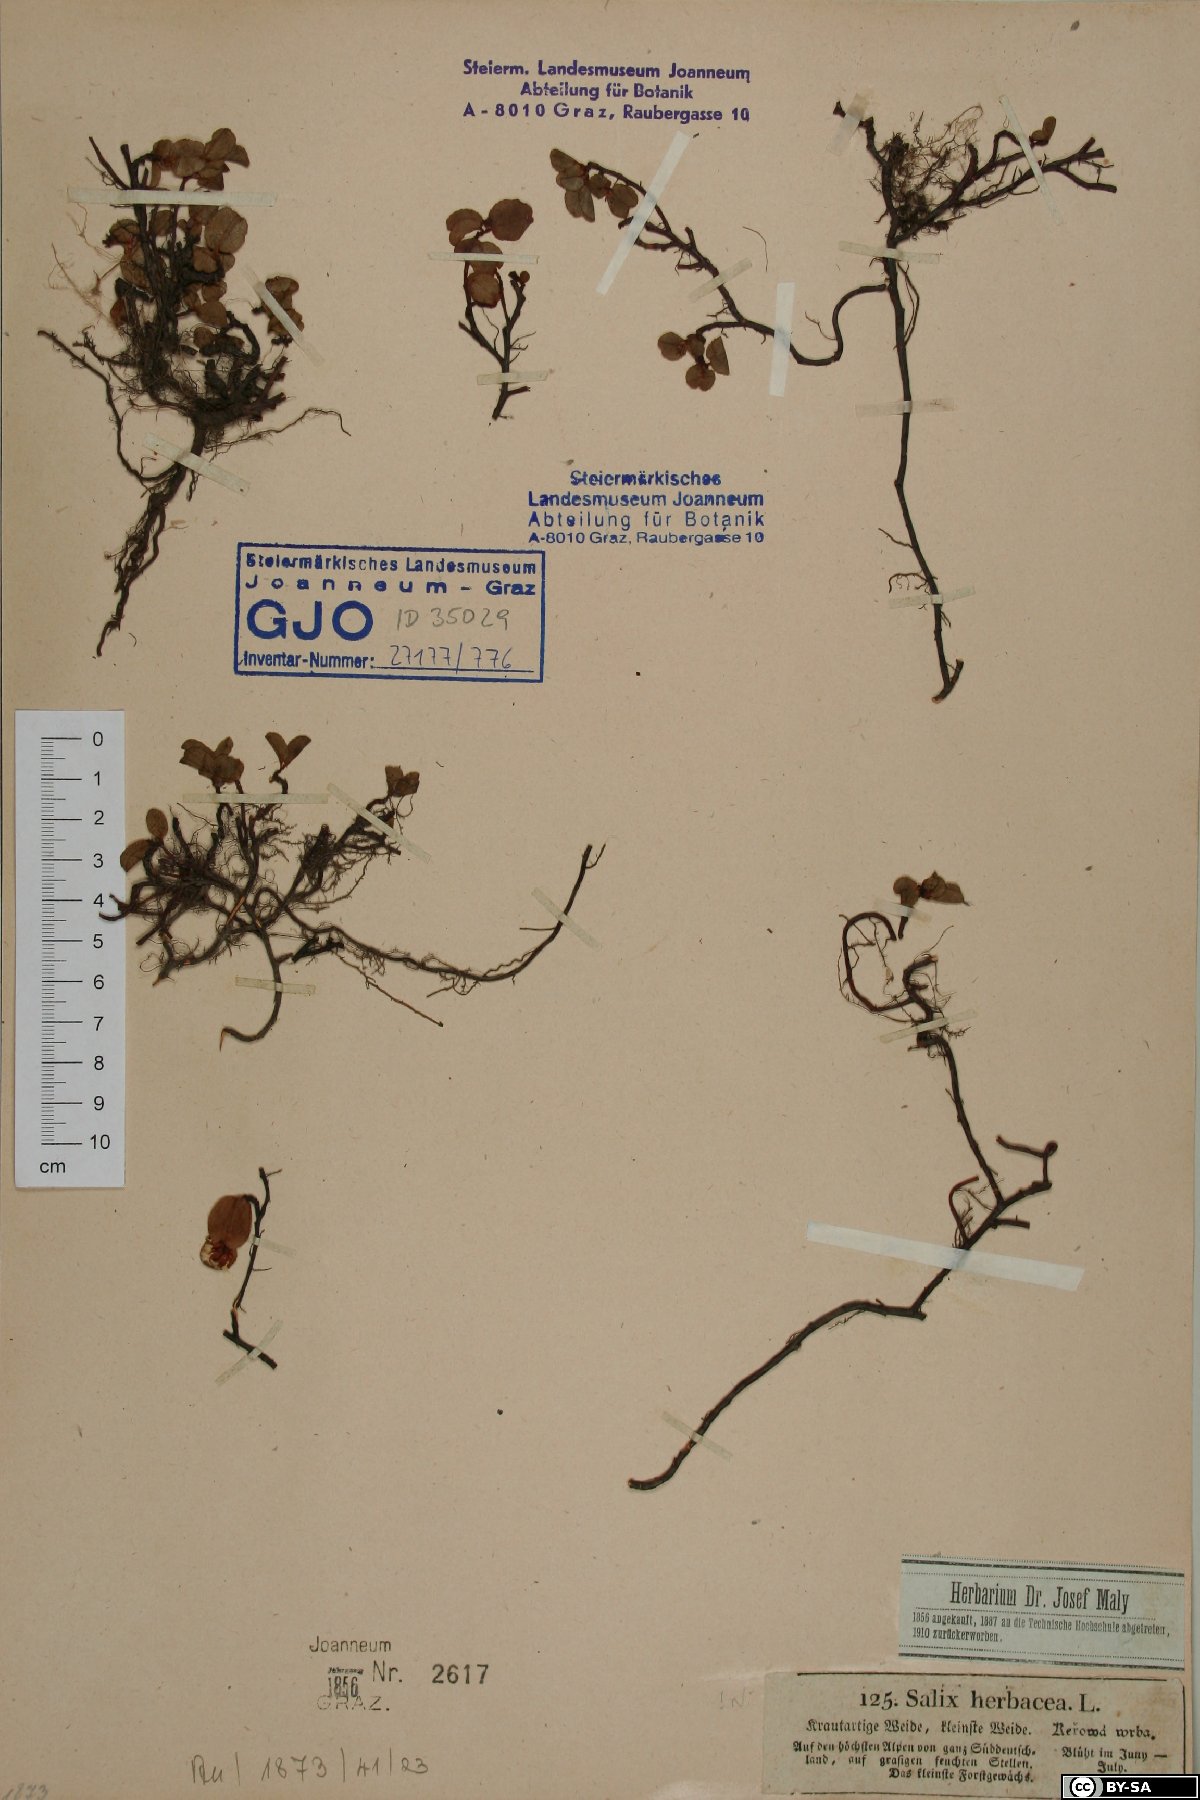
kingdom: Plantae
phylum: Tracheophyta
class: Magnoliopsida
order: Malpighiales
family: Salicaceae
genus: Salix
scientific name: Salix herbacea
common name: Dwarf willow
